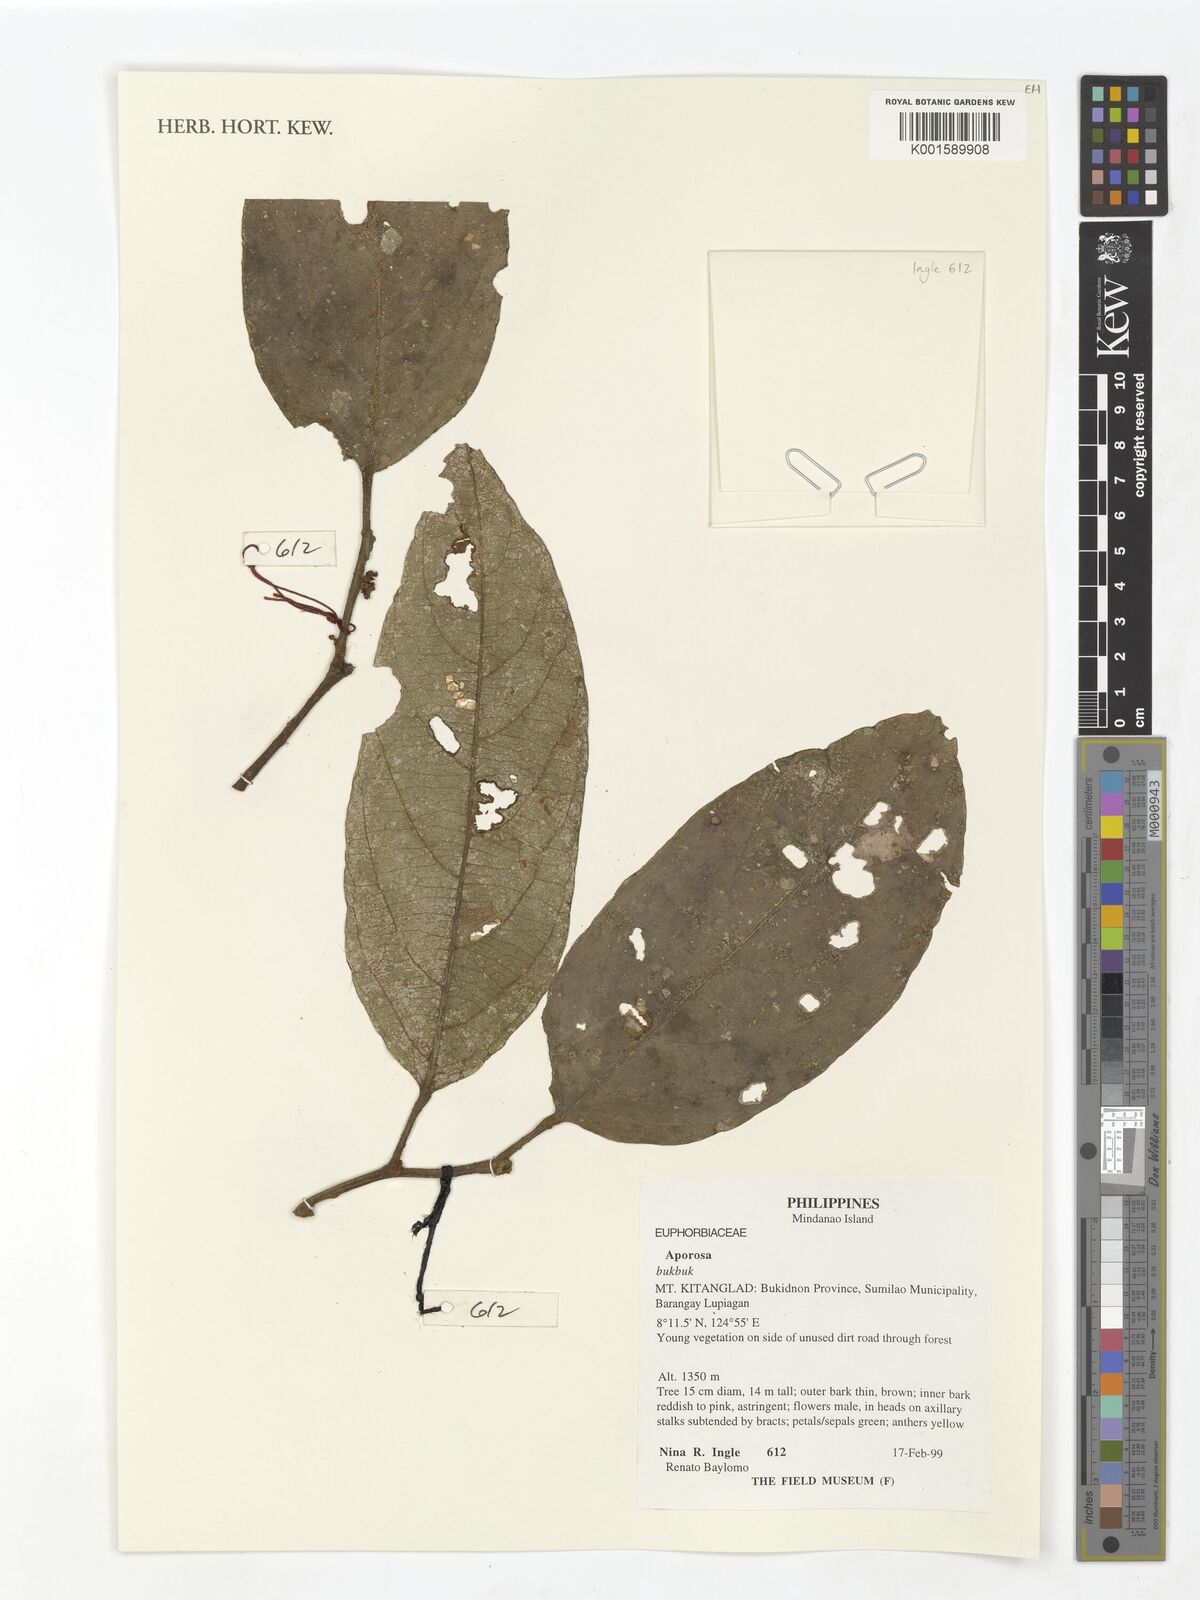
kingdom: Plantae
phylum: Tracheophyta
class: Magnoliopsida
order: Malpighiales
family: Phyllanthaceae
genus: Aporosa
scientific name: Aporosa
